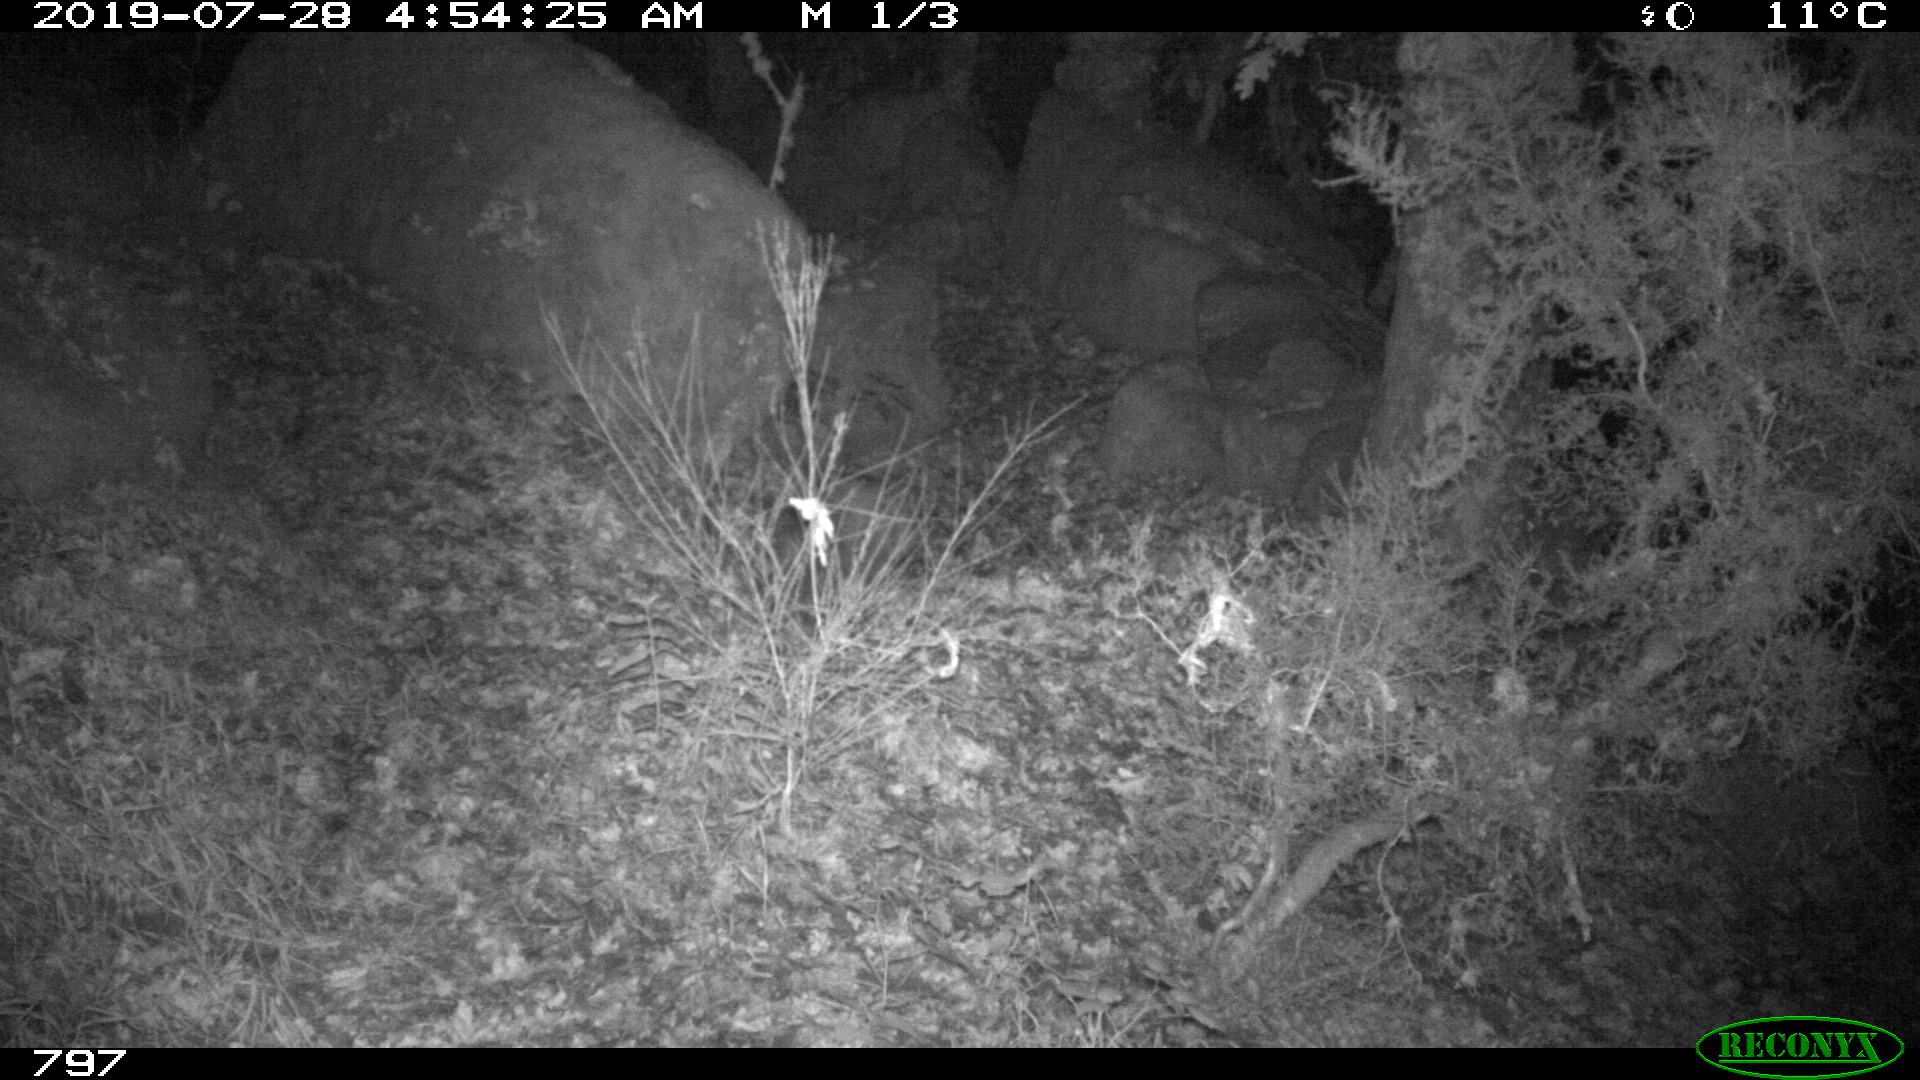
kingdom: Animalia
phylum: Chordata
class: Mammalia
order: Artiodactyla
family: Suidae
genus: Sus
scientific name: Sus scrofa
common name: Wild boar
